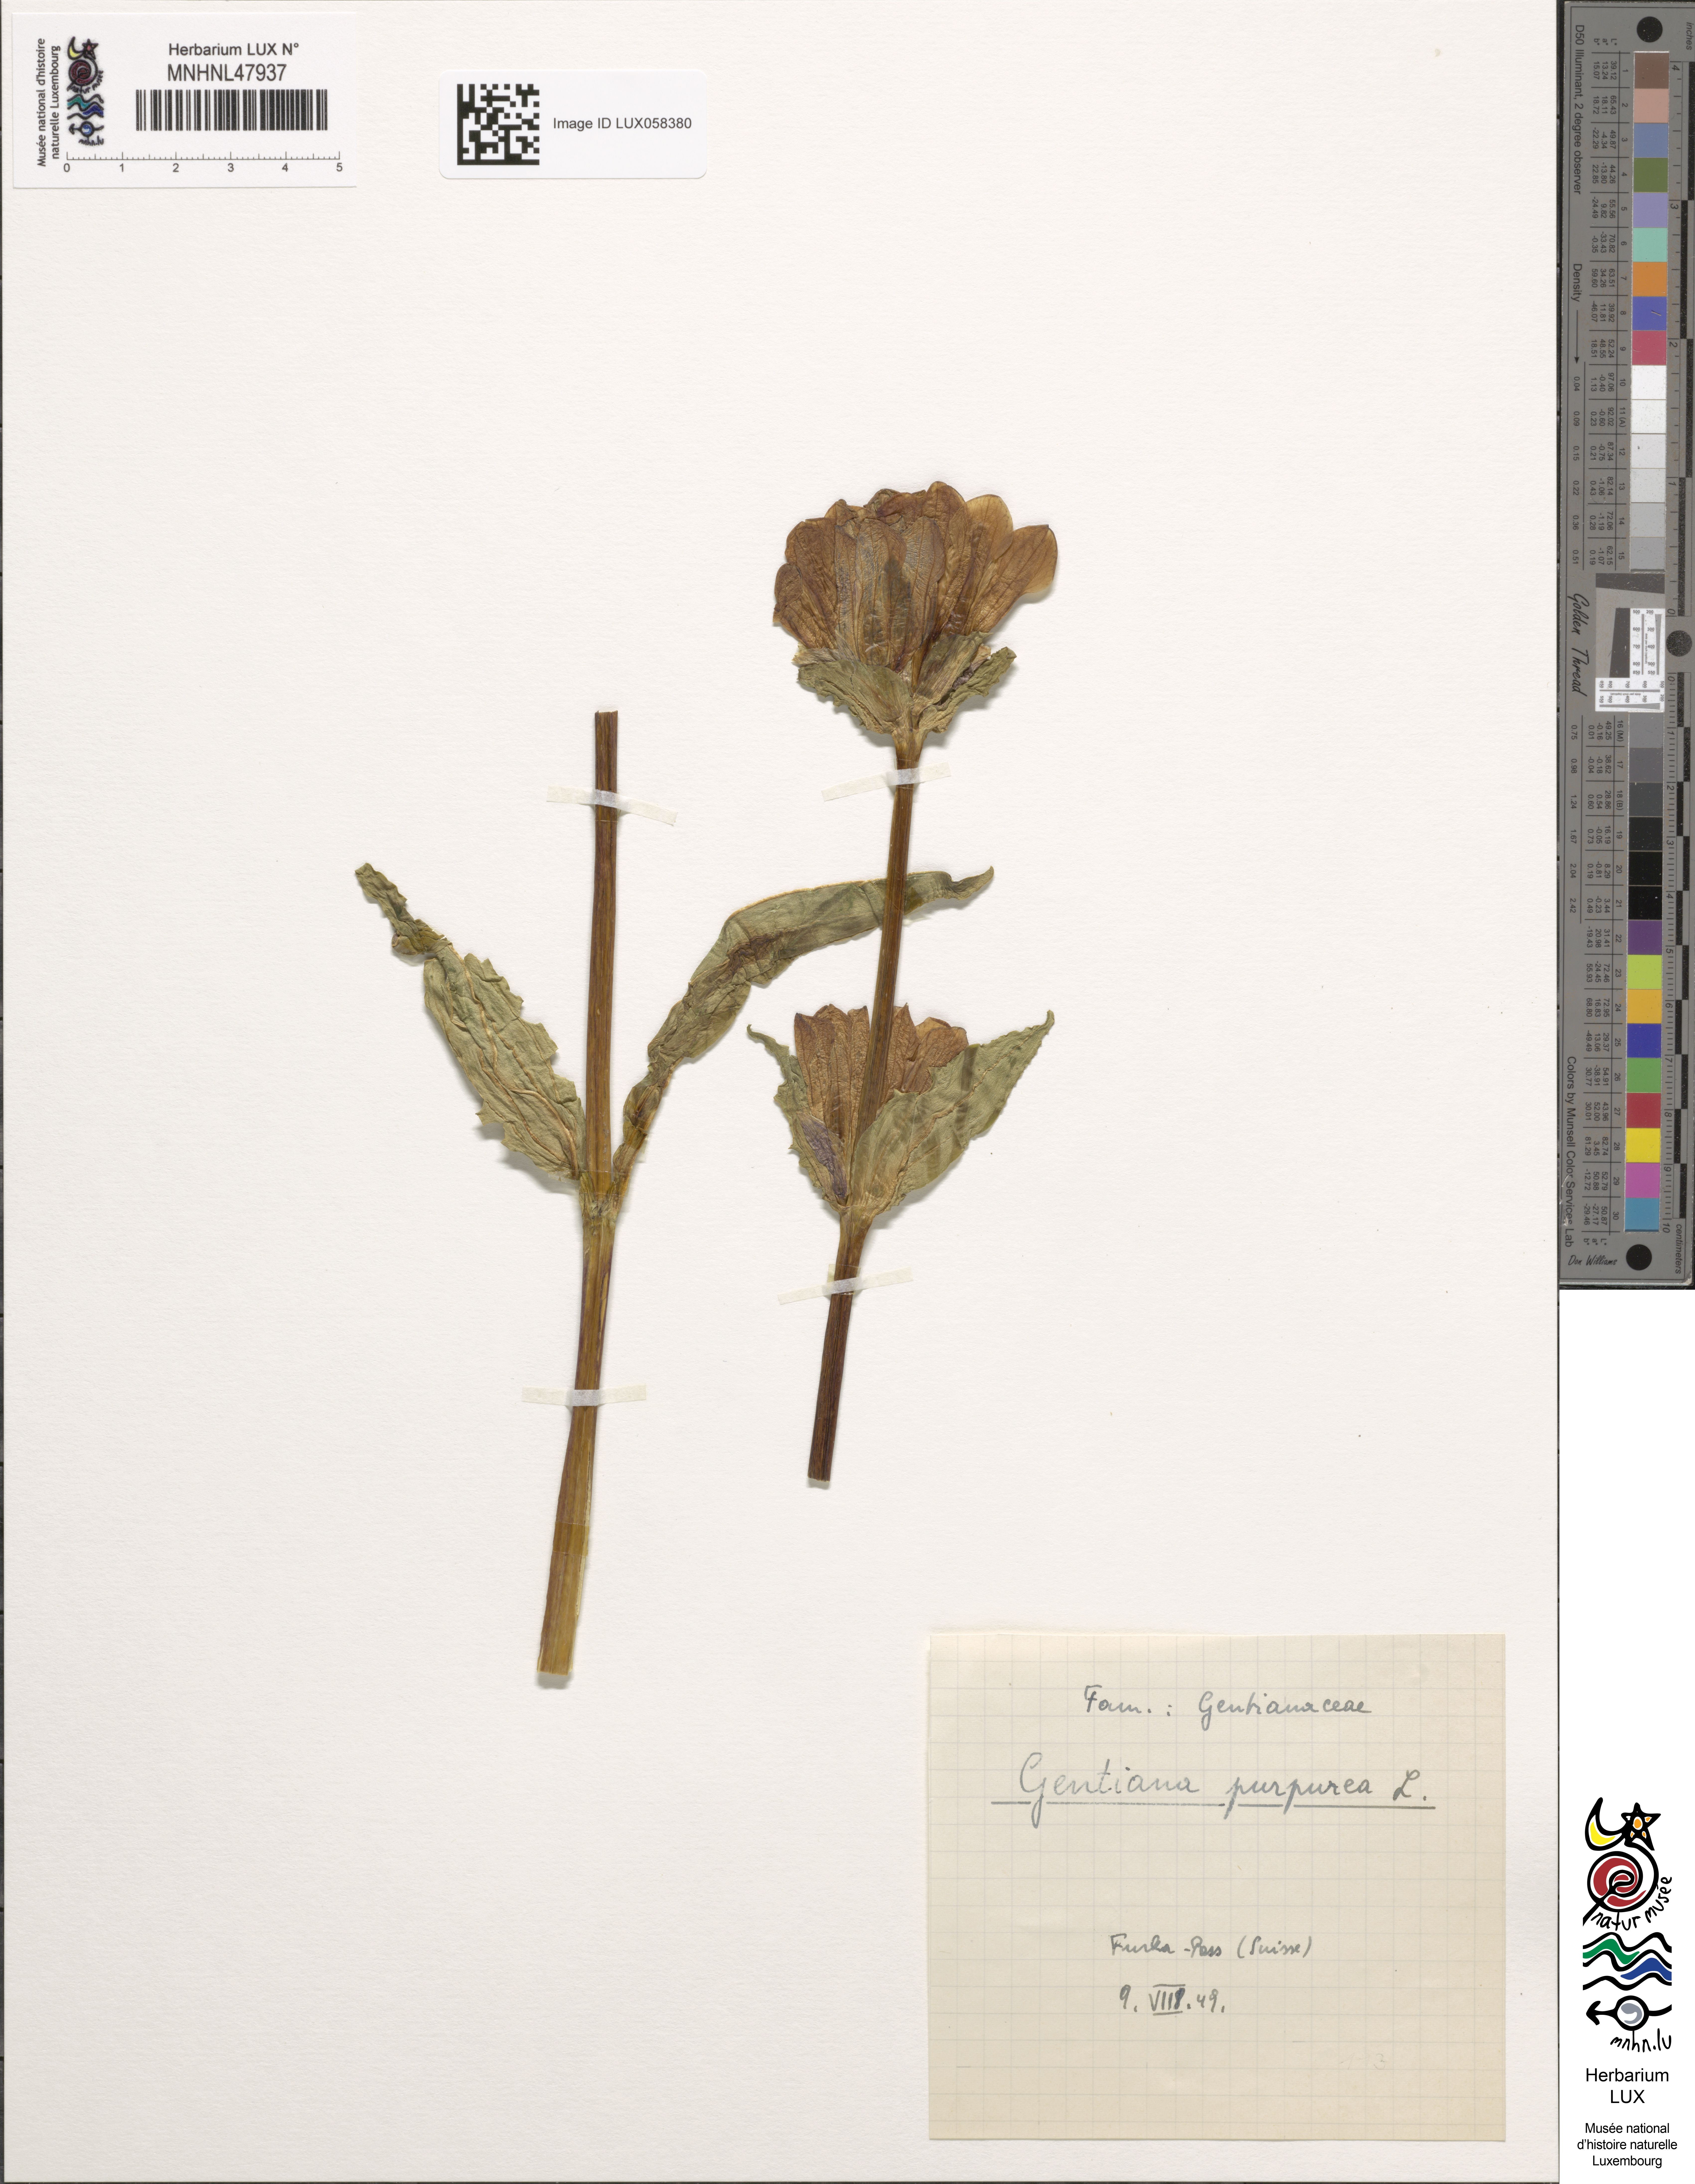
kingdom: Plantae
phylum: Tracheophyta
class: Magnoliopsida
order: Gentianales
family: Gentianaceae
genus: Gentiana
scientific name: Gentiana purpurea
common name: Purple gentian
